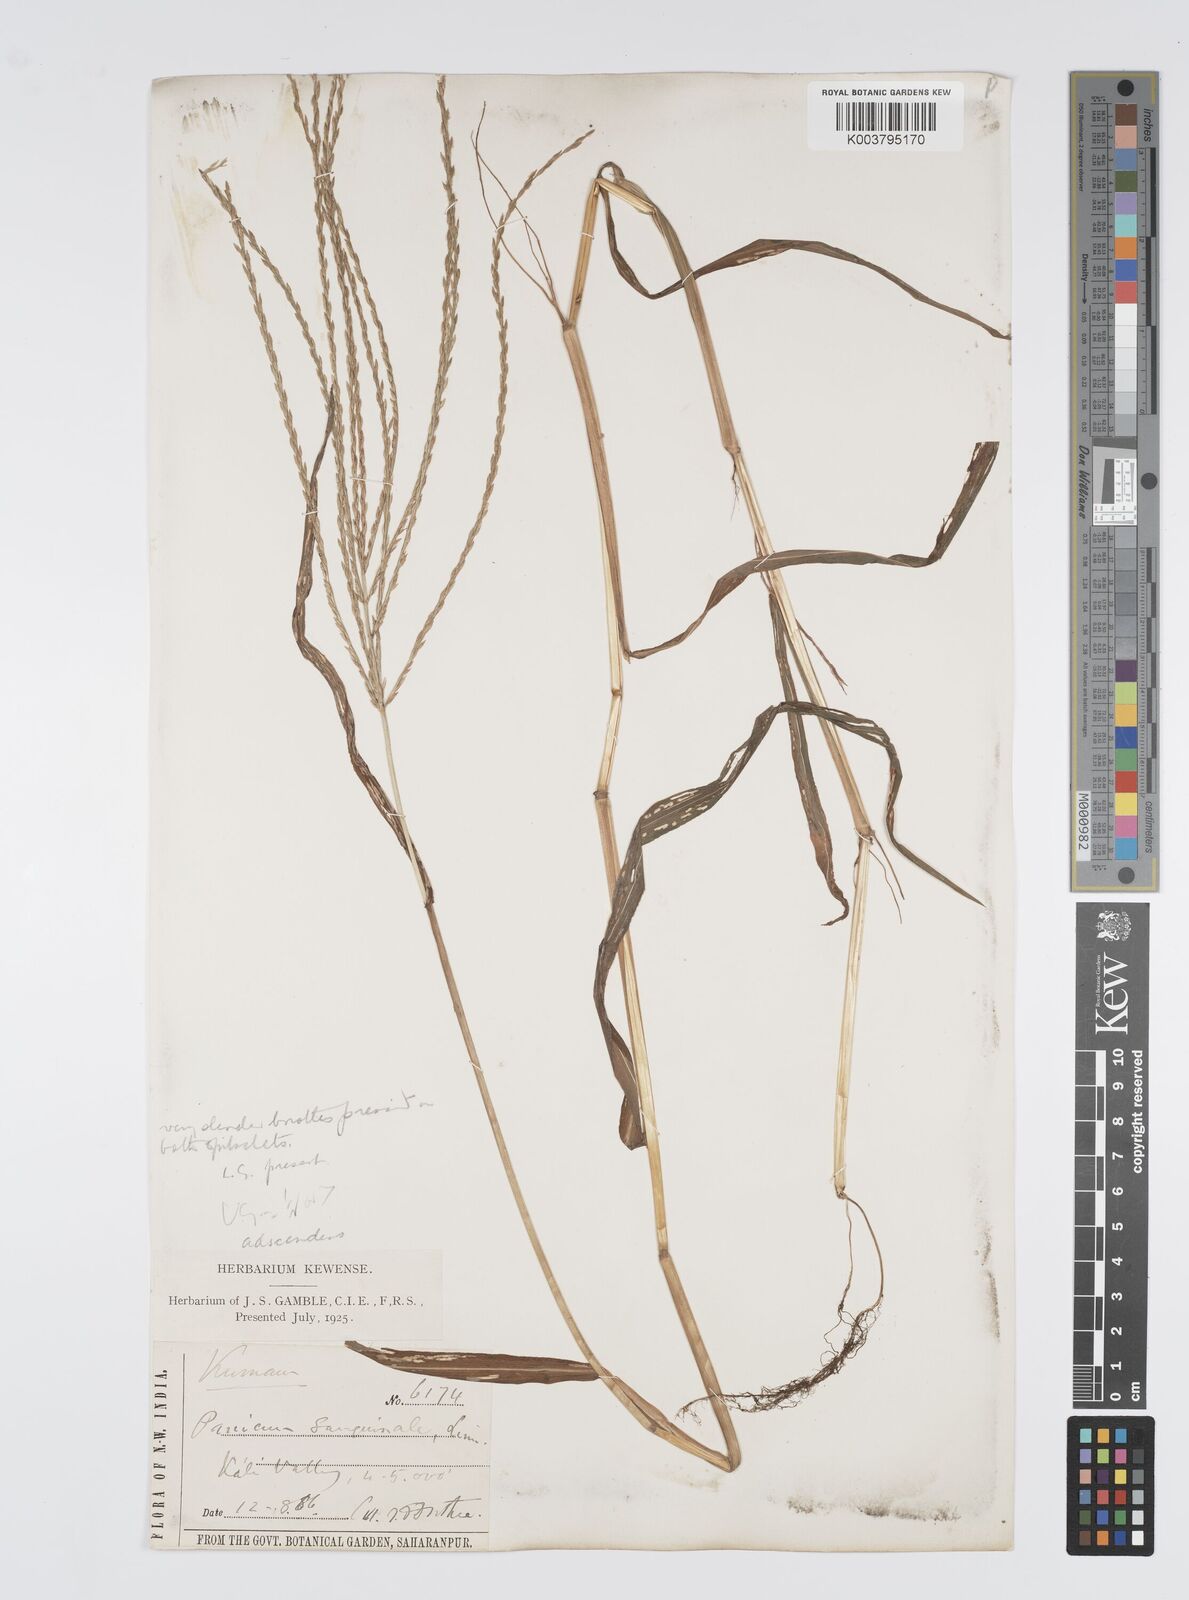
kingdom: Plantae
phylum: Tracheophyta
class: Liliopsida
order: Poales
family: Poaceae
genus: Digitaria
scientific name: Digitaria ciliaris
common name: Tropical finger-grass
